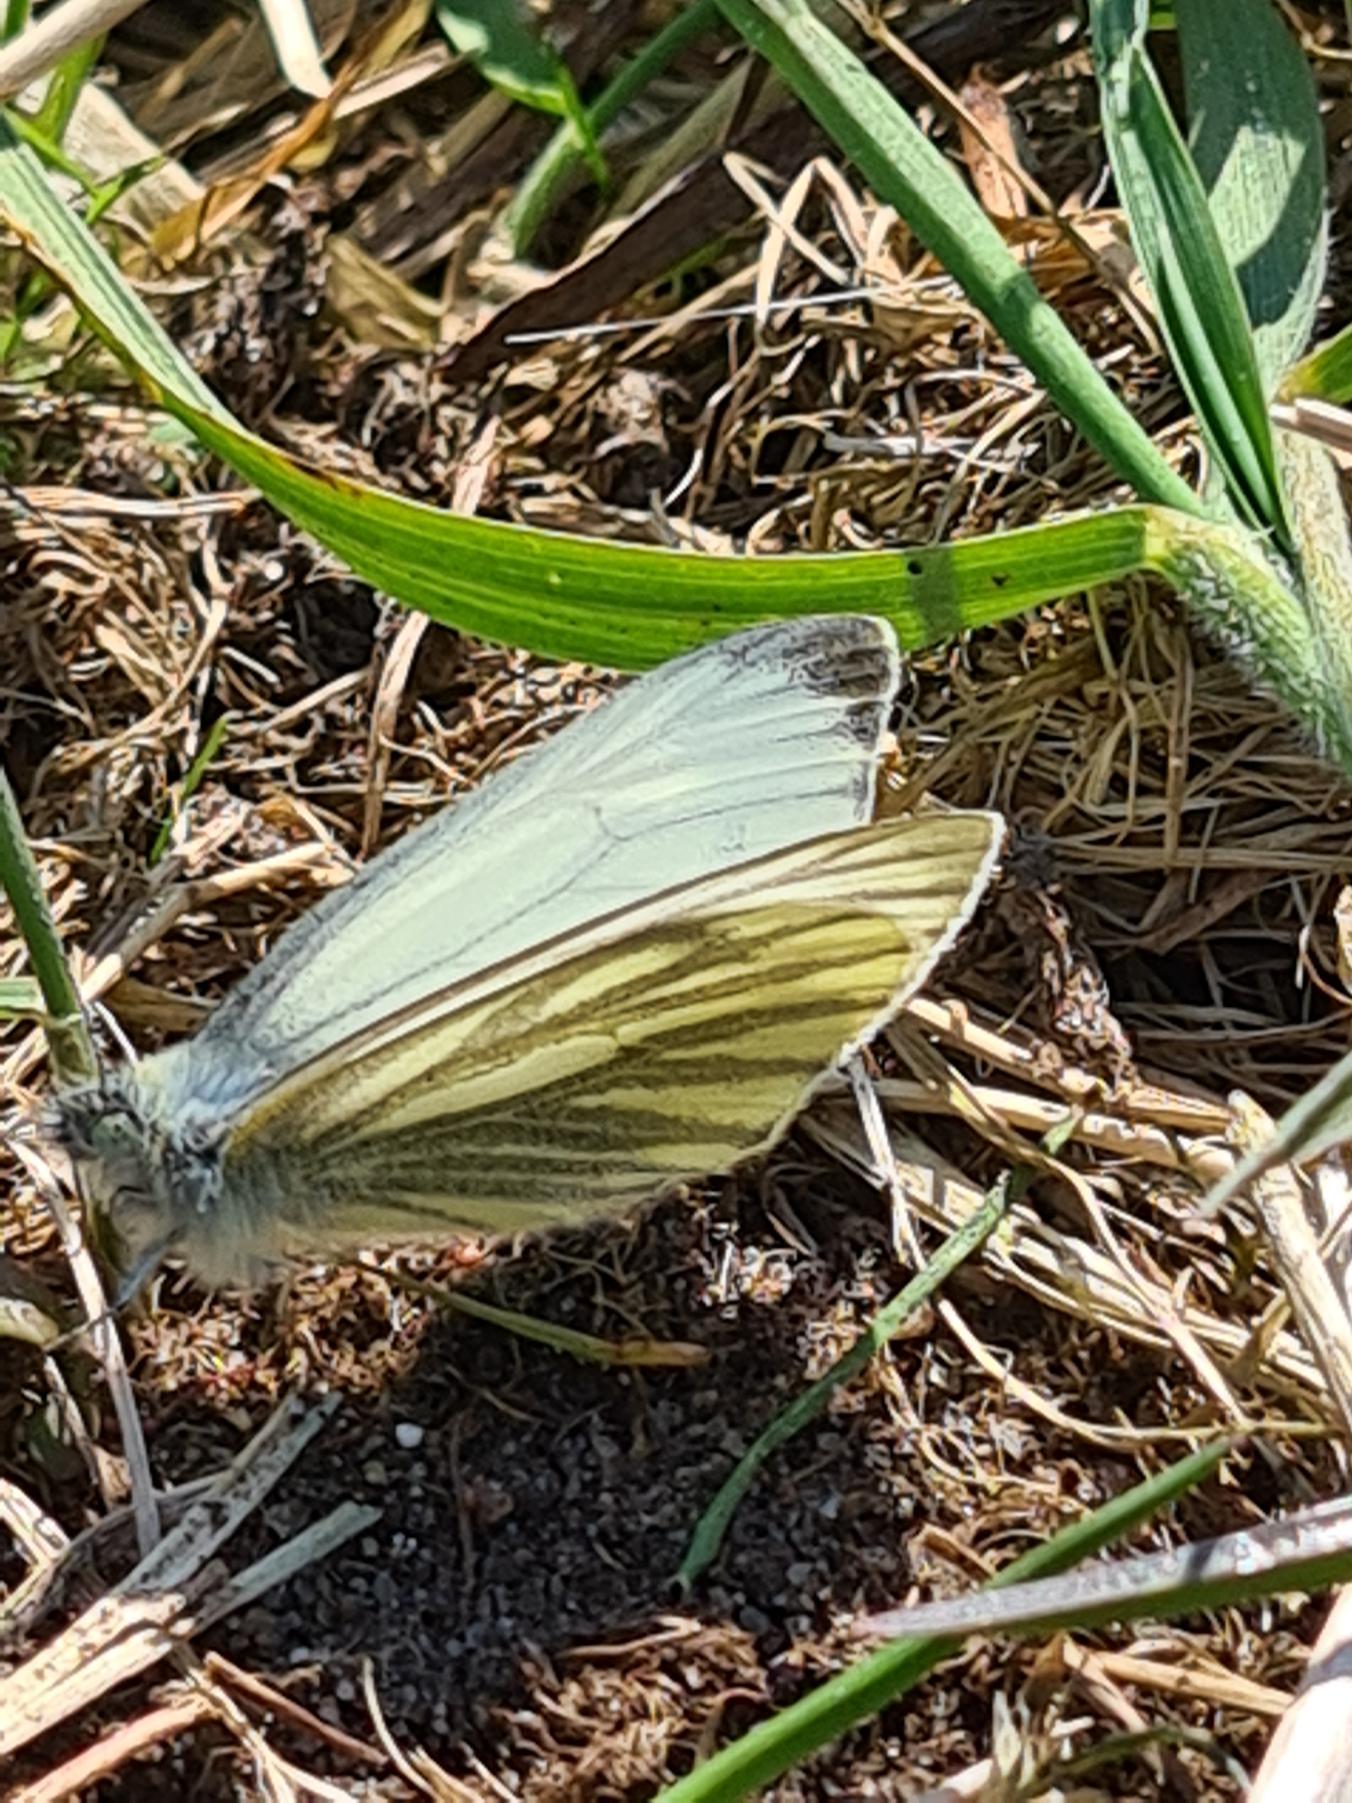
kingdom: Animalia
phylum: Arthropoda
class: Insecta
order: Lepidoptera
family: Pieridae
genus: Pieris
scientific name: Pieris napi
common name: Grønåret kålsommerfugl
